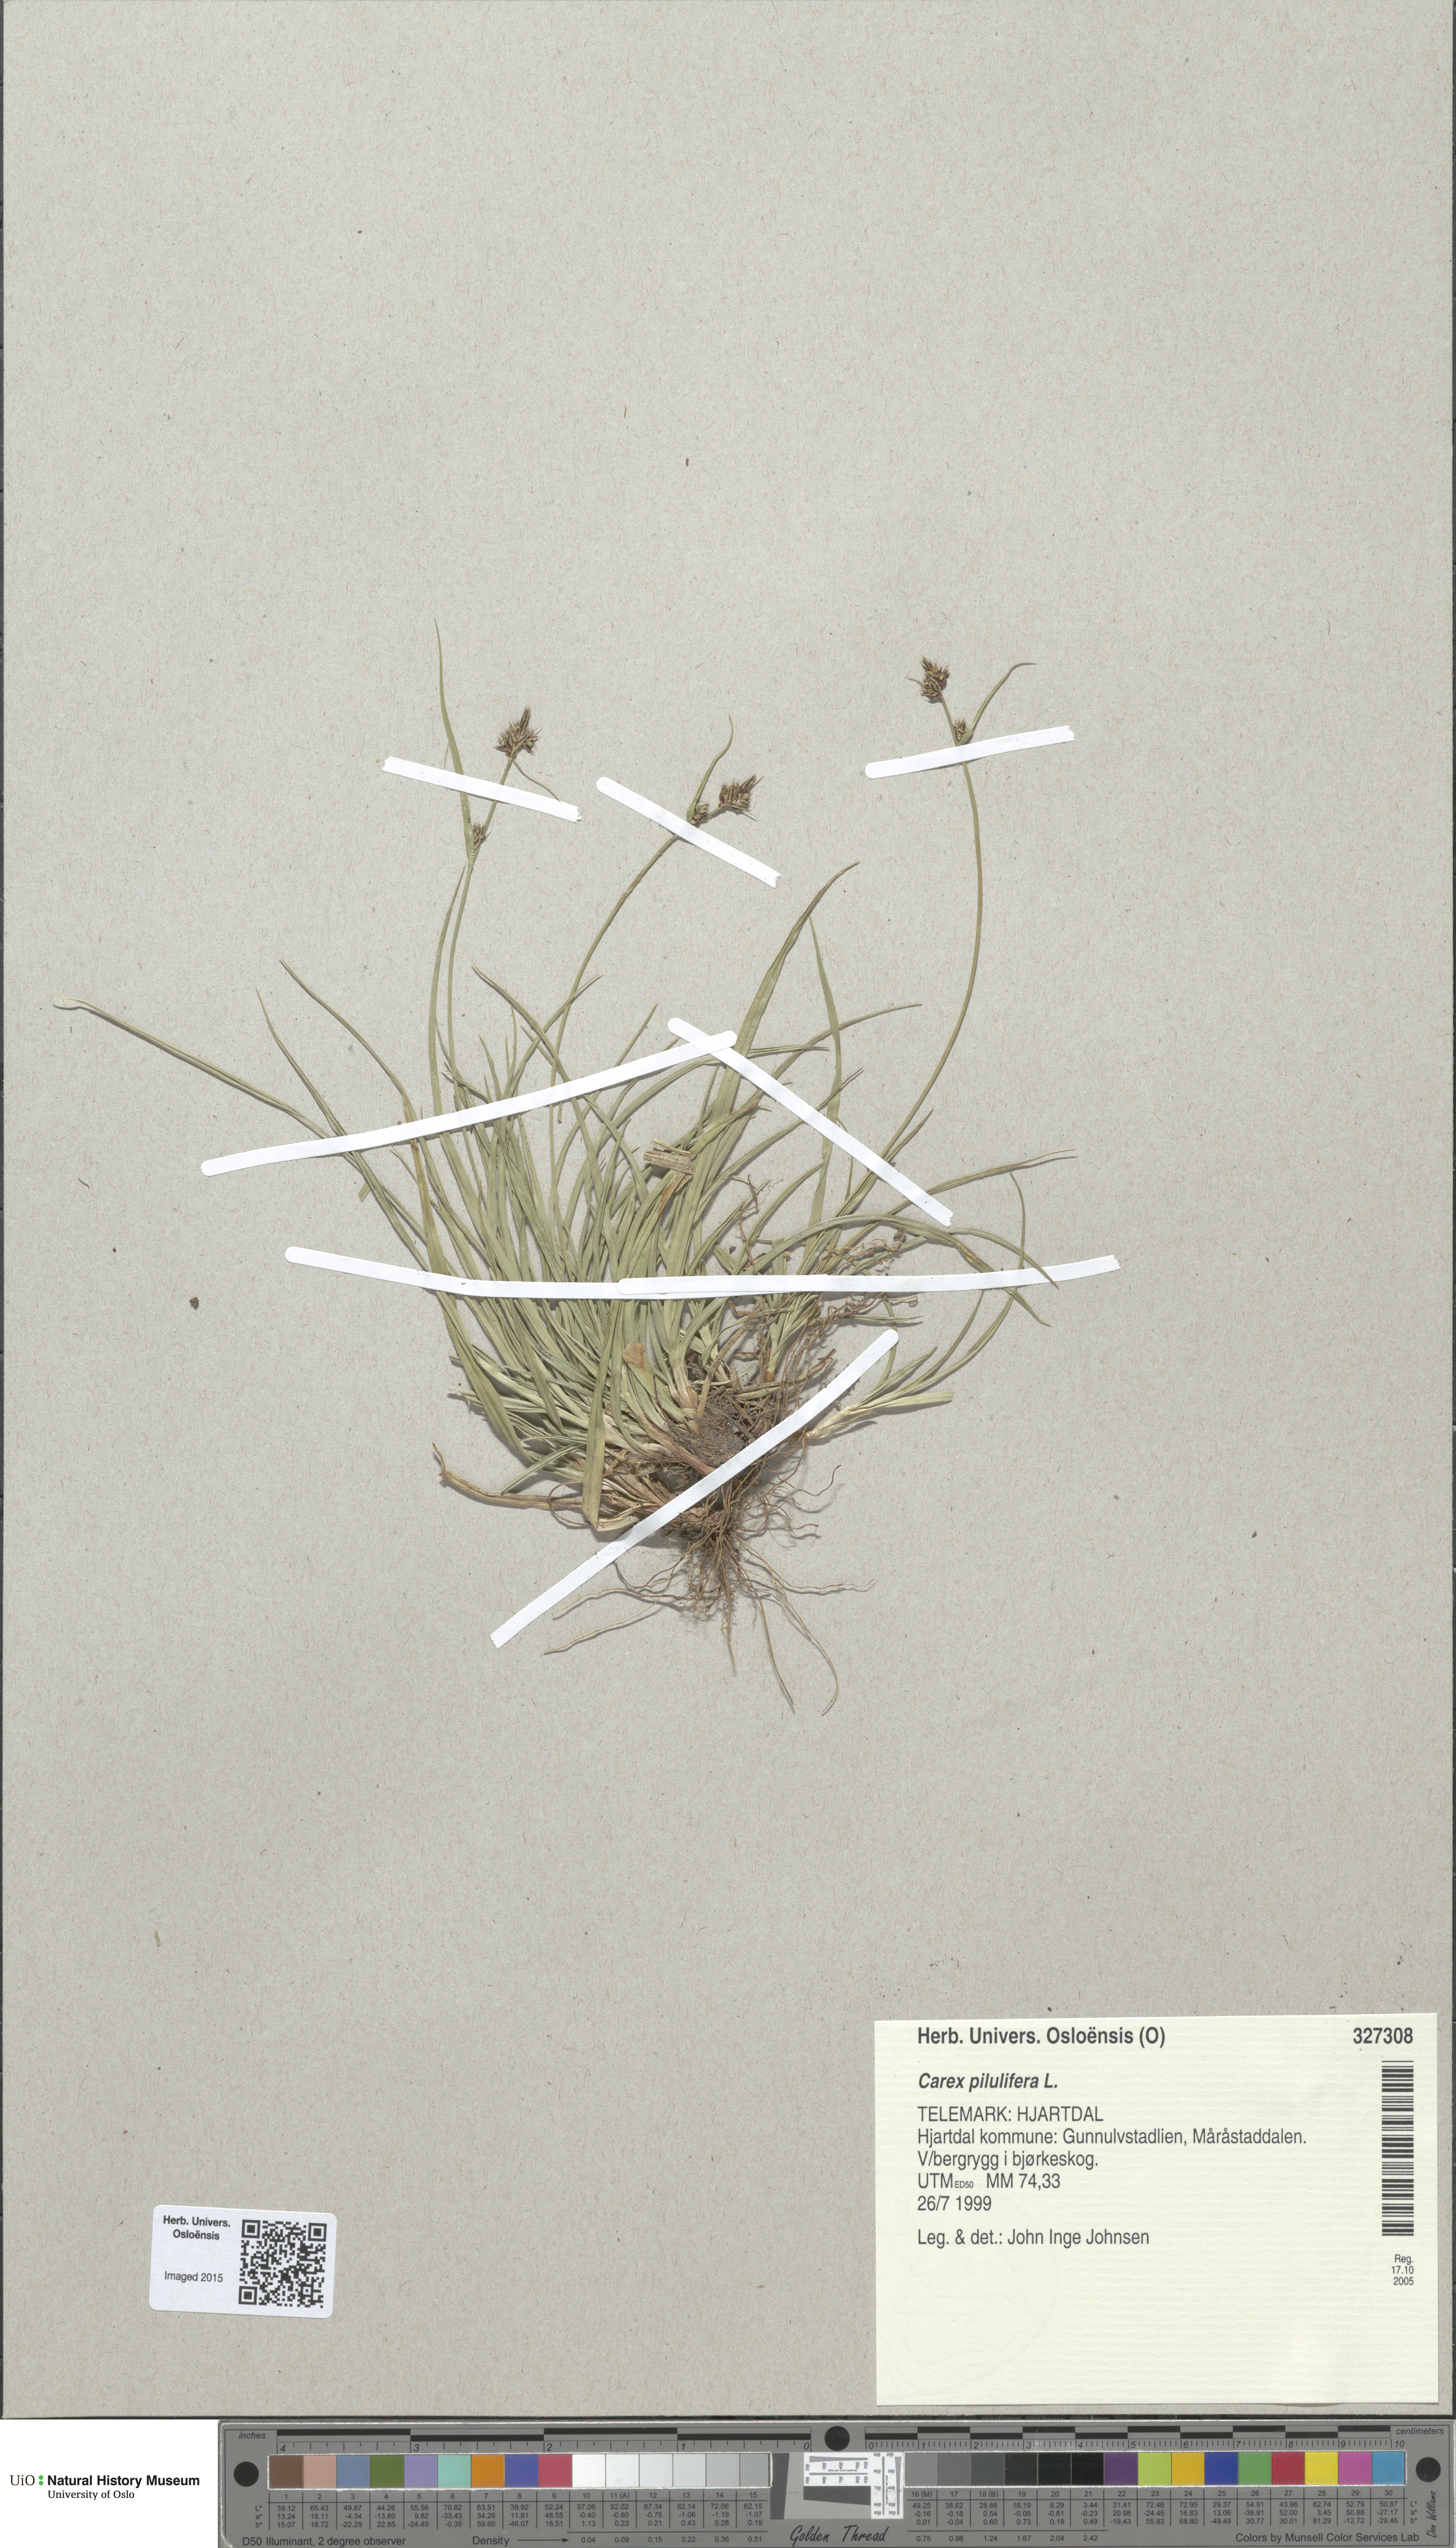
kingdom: Plantae
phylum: Tracheophyta
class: Liliopsida
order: Poales
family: Cyperaceae
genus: Carex
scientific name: Carex pilulifera
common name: Pill sedge
